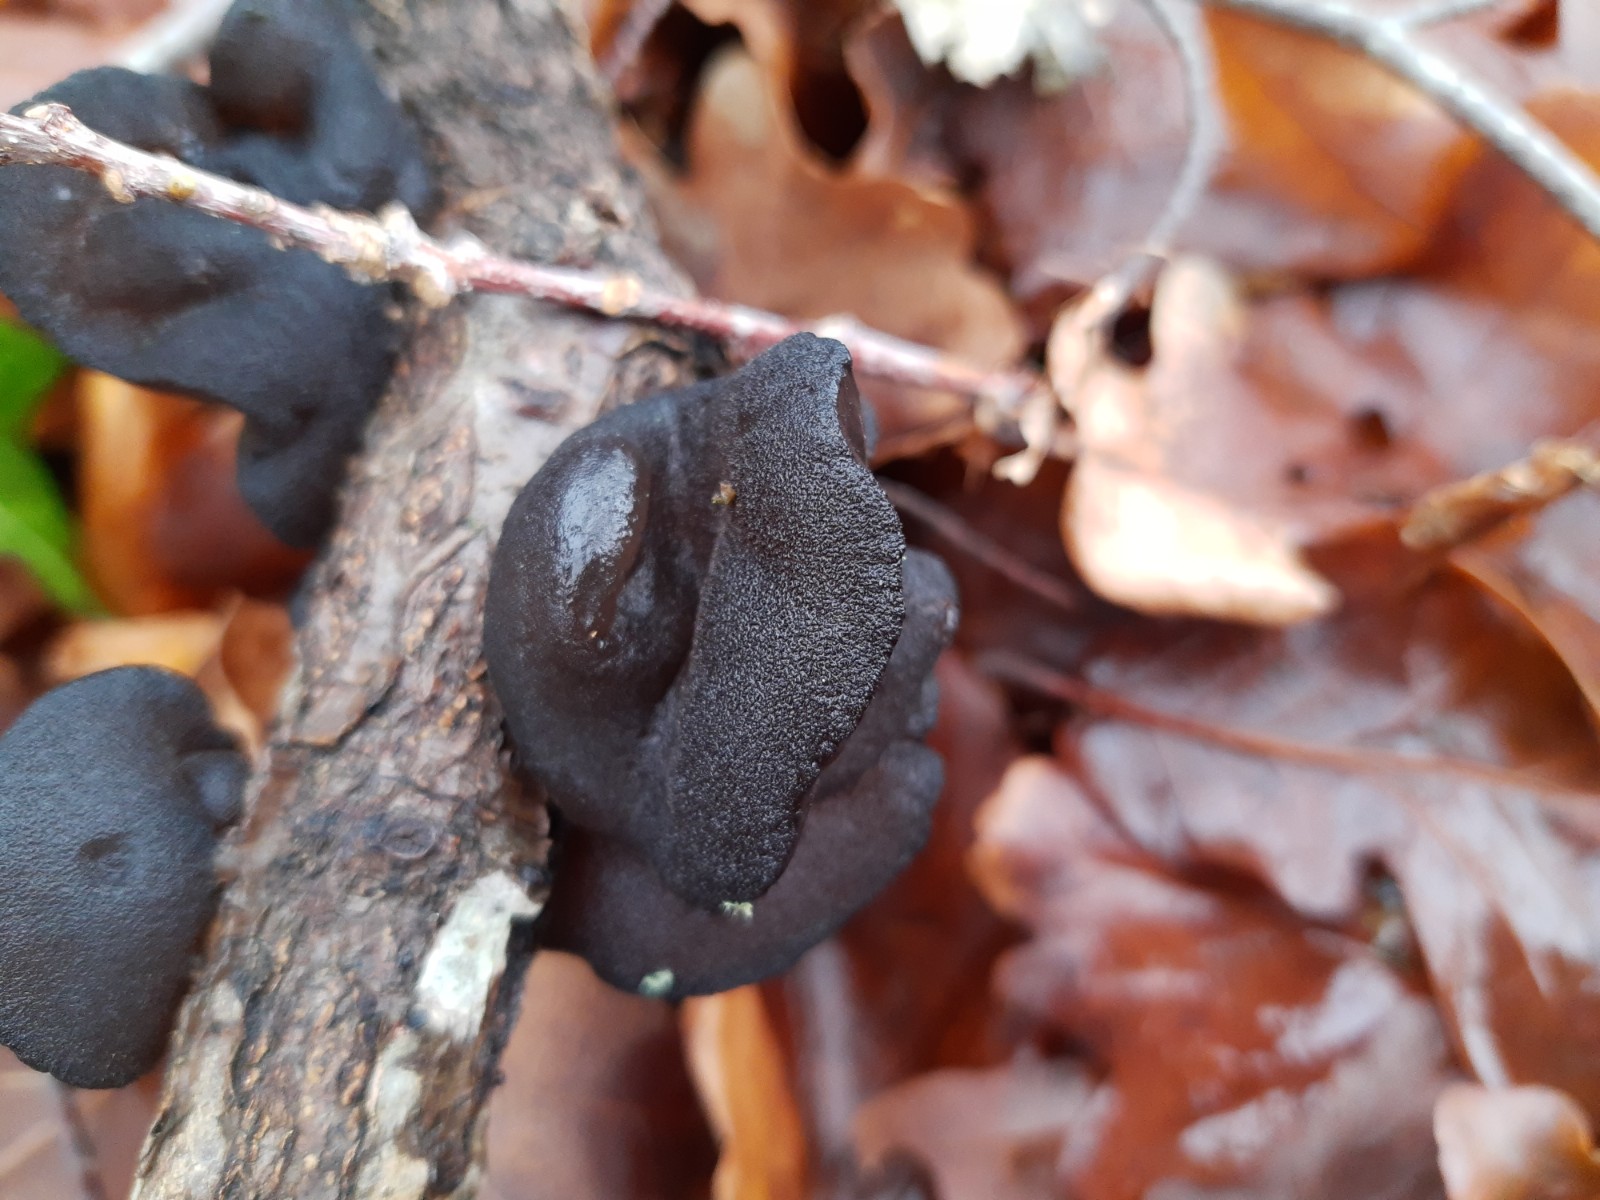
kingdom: Fungi
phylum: Basidiomycota
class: Agaricomycetes
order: Auriculariales
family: Auriculariaceae
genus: Exidia
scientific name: Exidia glandulosa
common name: ege-bævretop
